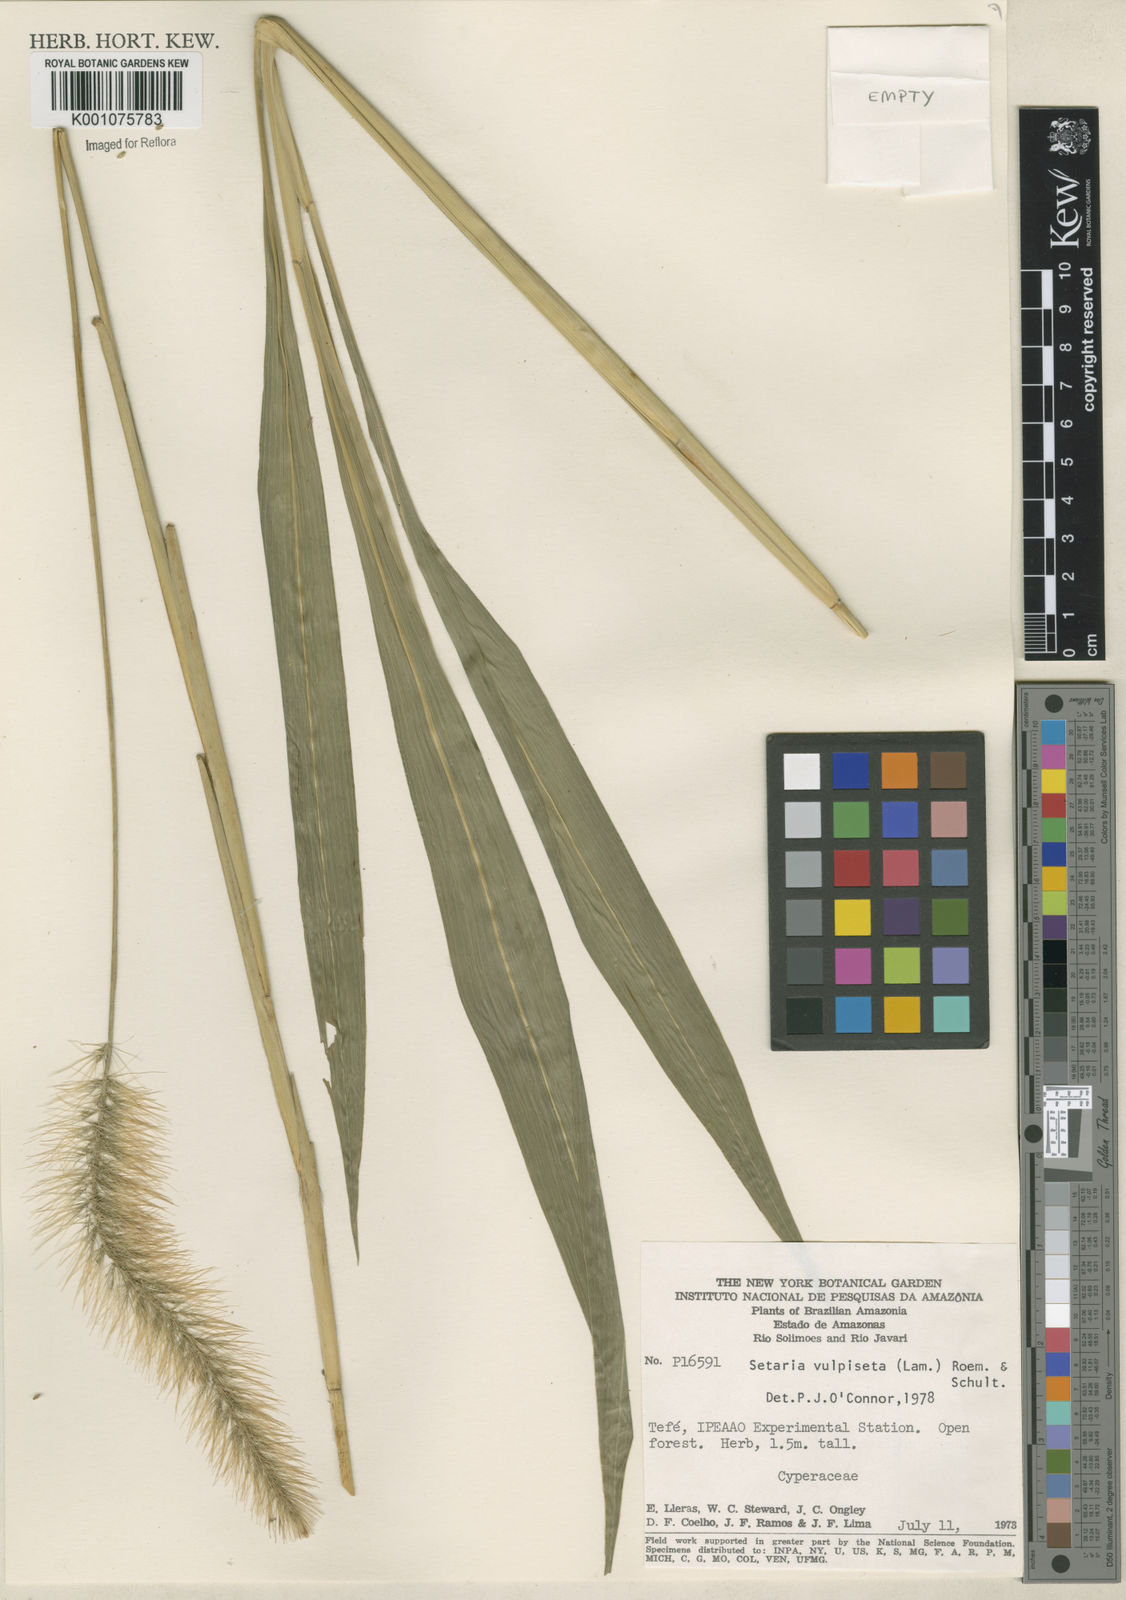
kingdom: Plantae
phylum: Tracheophyta
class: Liliopsida
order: Poales
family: Poaceae
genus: Setaria
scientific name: Setaria vulpiseta
